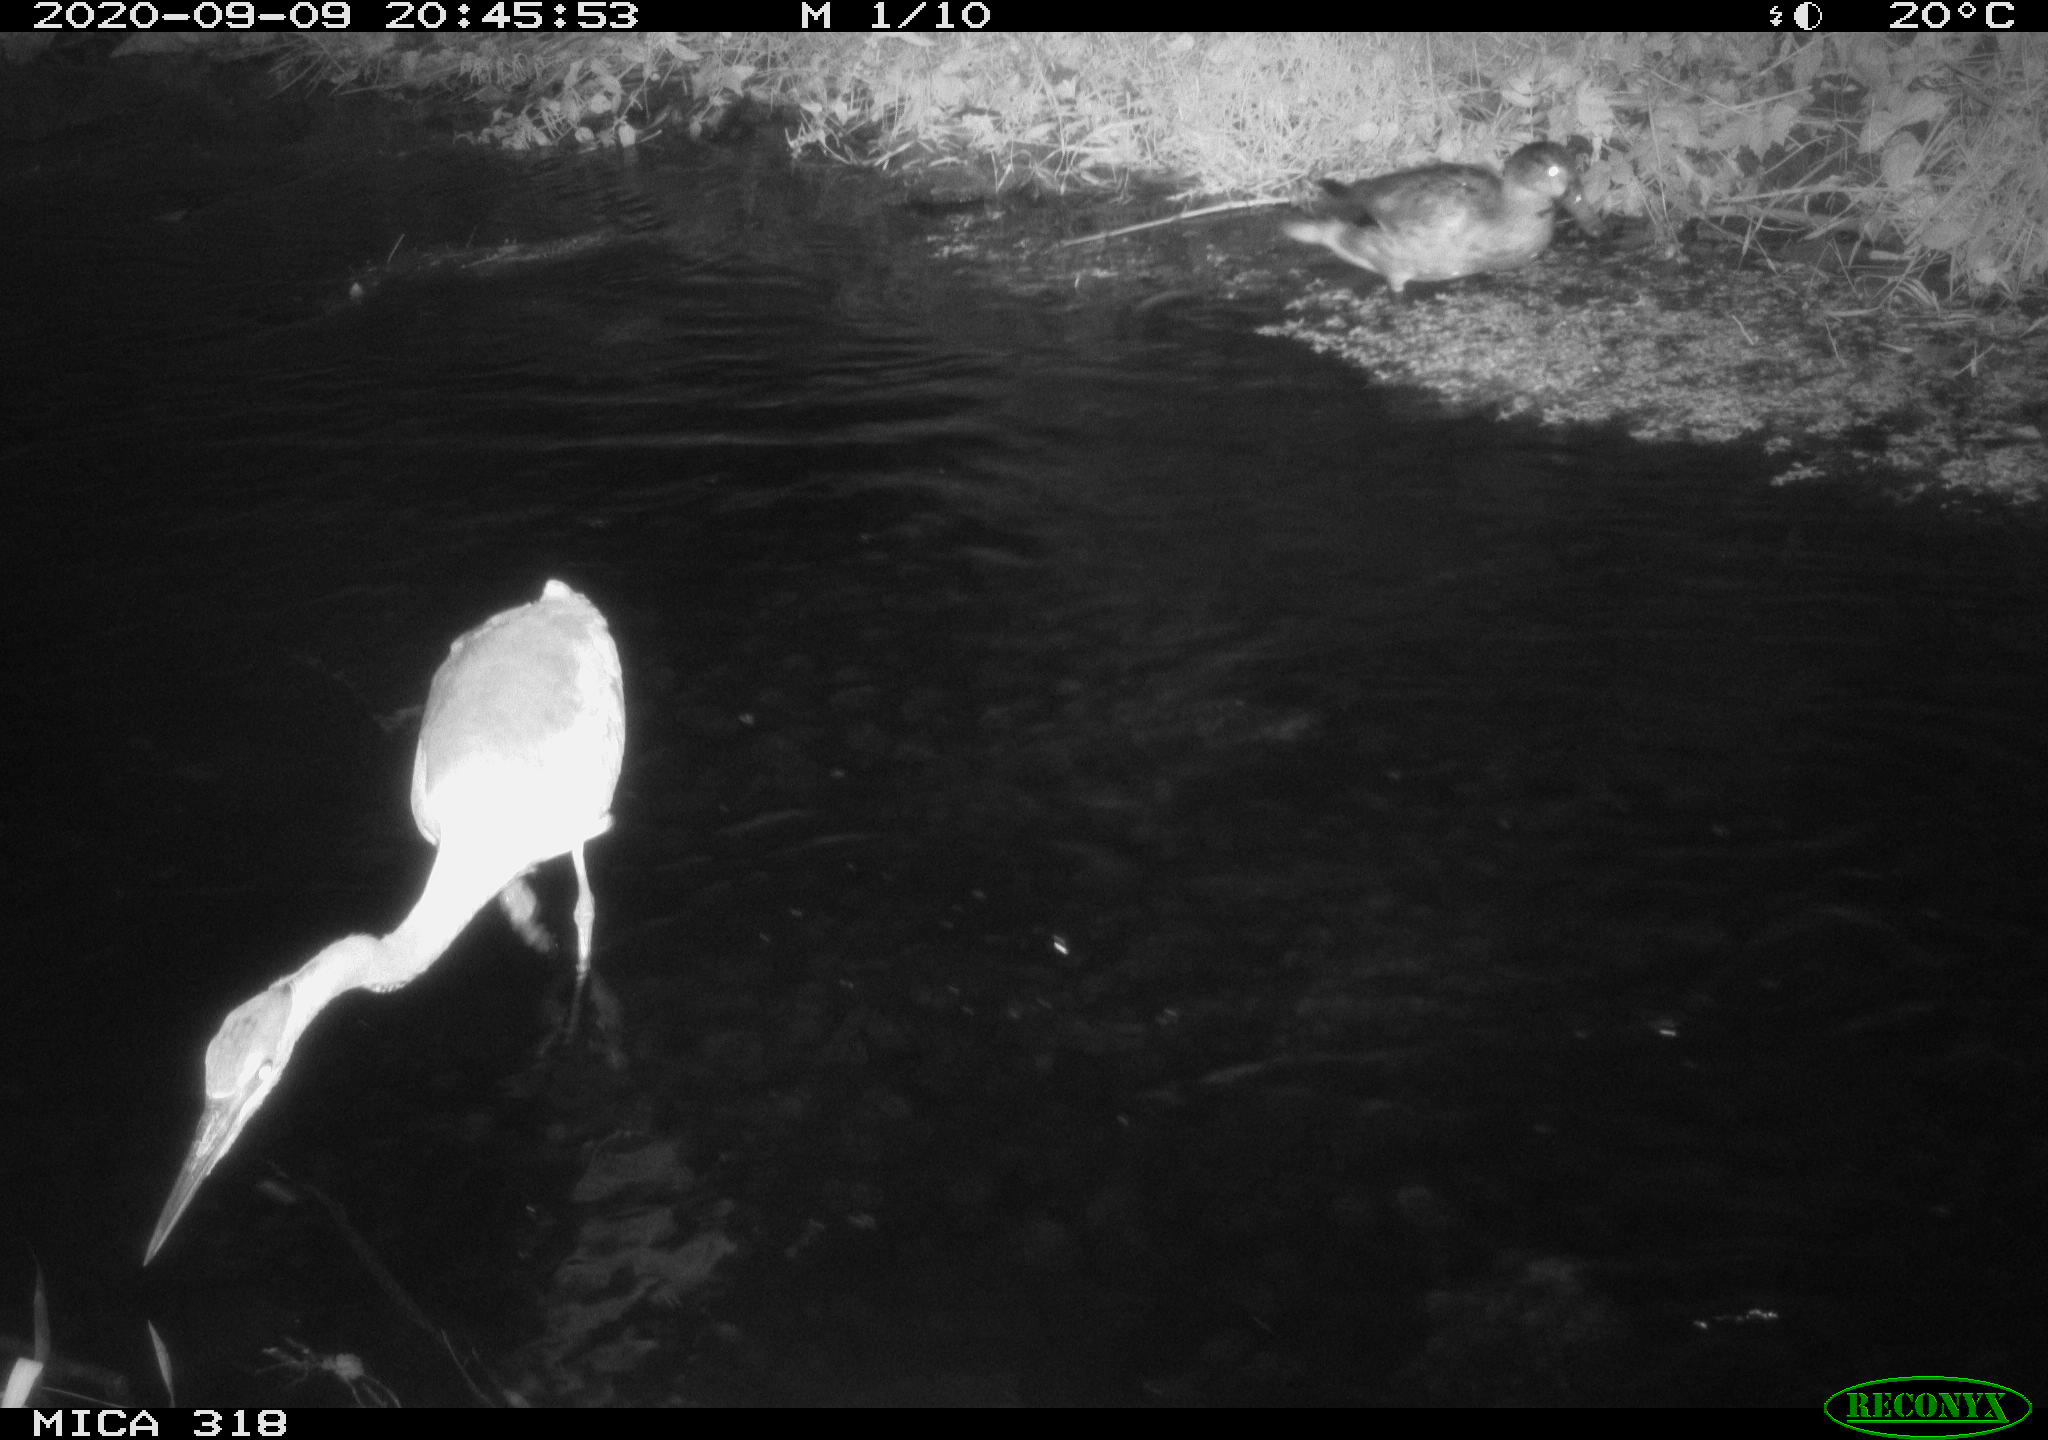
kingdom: Animalia
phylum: Chordata
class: Aves
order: Anseriformes
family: Anatidae
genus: Anas
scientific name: Anas platyrhynchos
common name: Mallard
